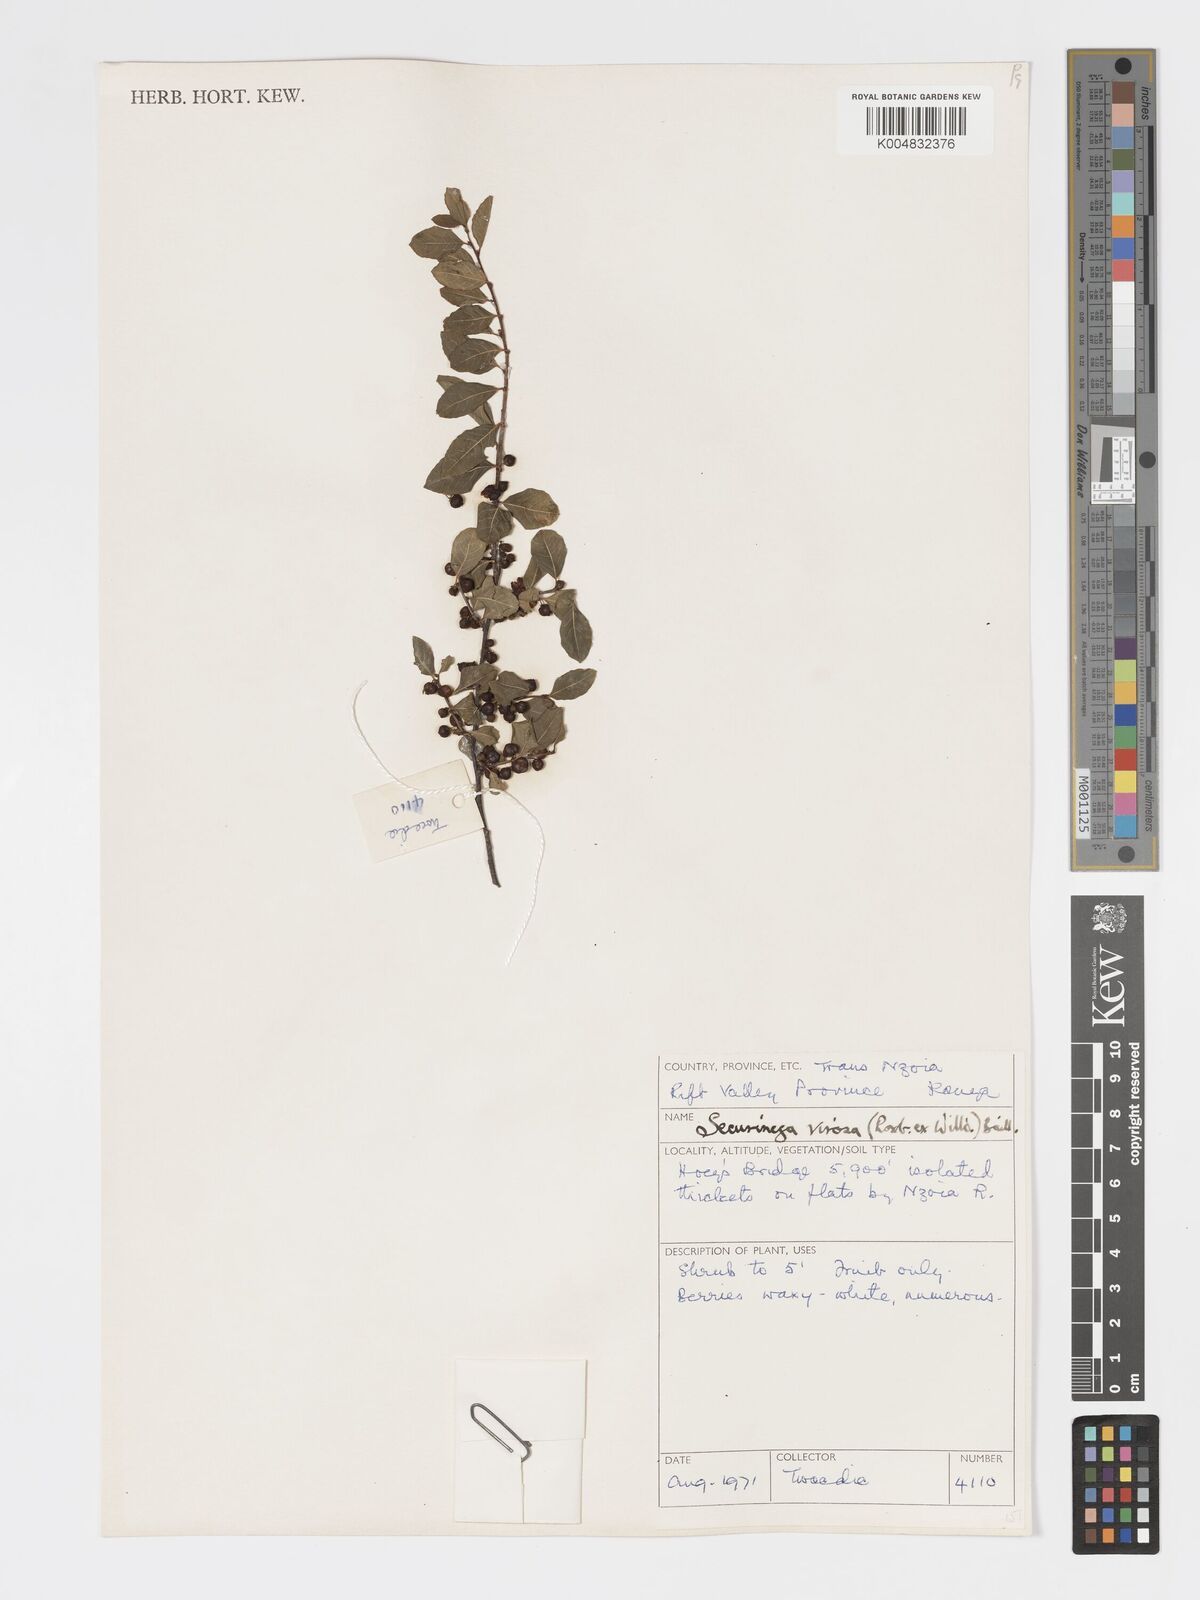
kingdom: Plantae
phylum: Tracheophyta
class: Magnoliopsida
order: Malpighiales
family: Phyllanthaceae
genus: Flueggea
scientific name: Flueggea virosa
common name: Common bushweed
